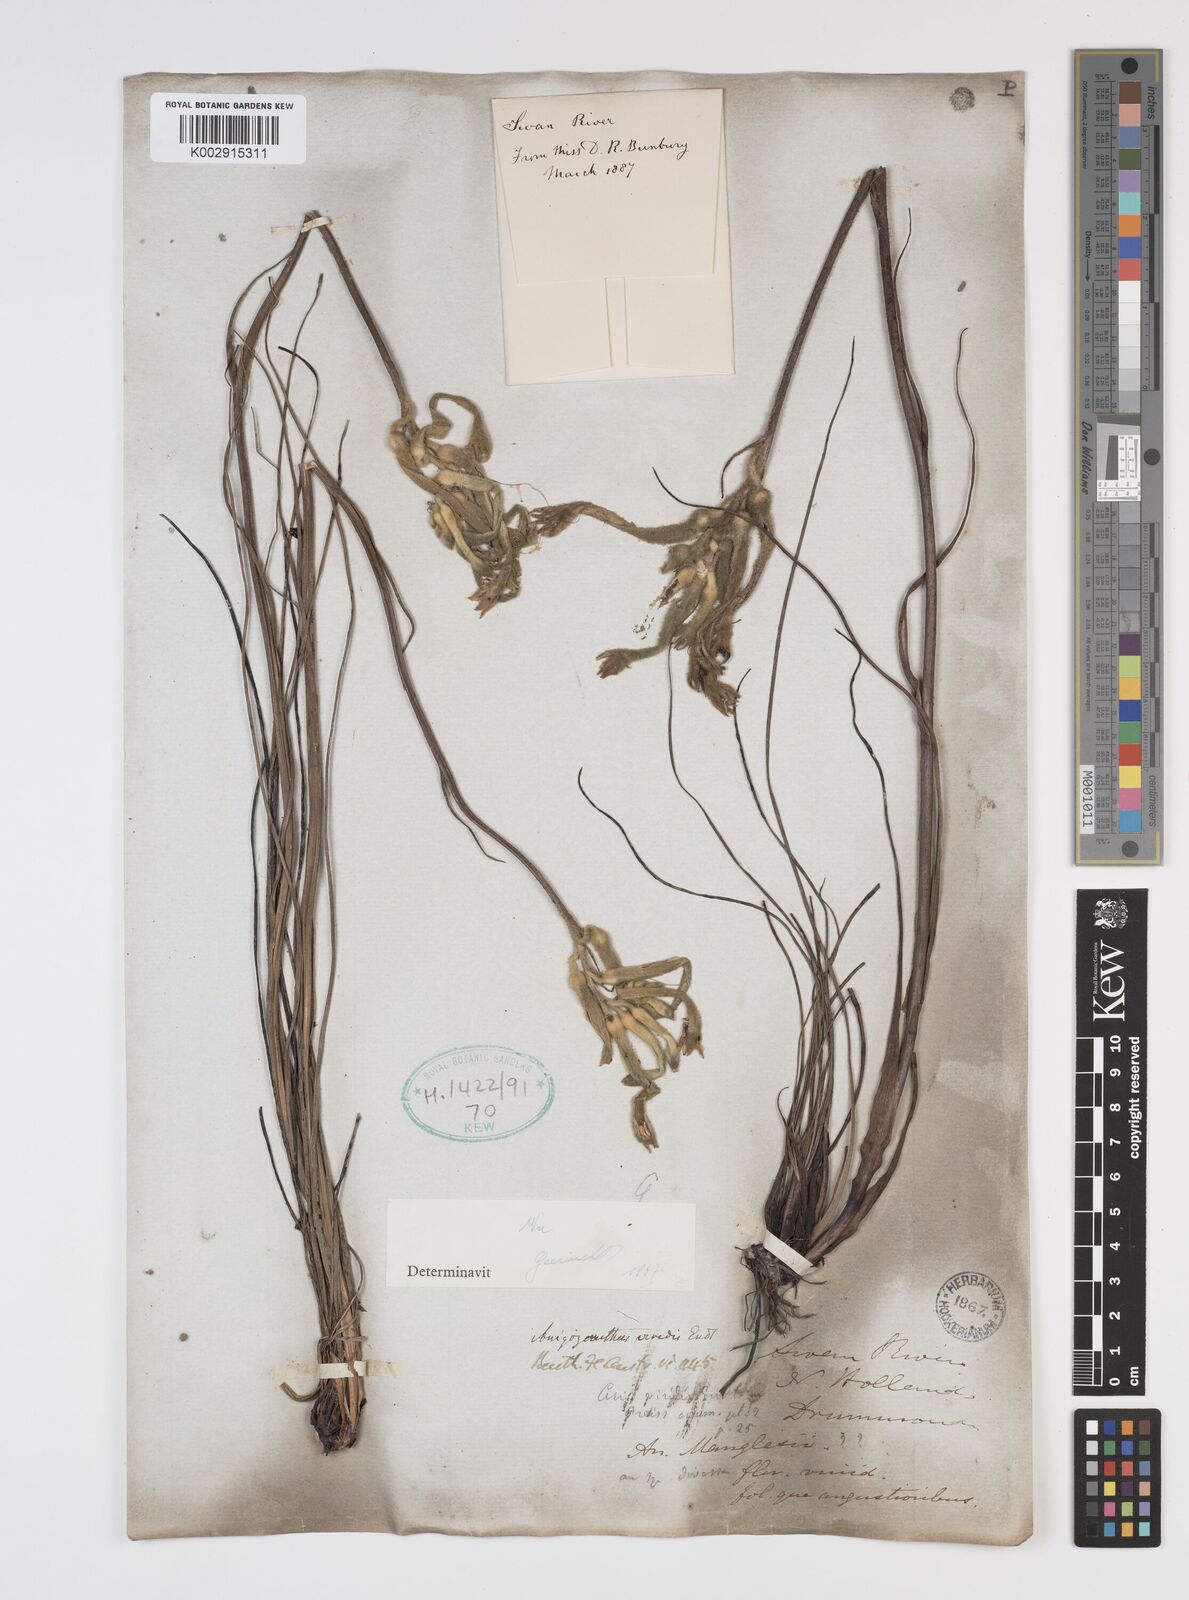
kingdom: Plantae
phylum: Tracheophyta
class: Liliopsida
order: Commelinales
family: Haemodoraceae
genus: Anigozanthos
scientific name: Anigozanthos viridis
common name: Green kangaroo-paw
